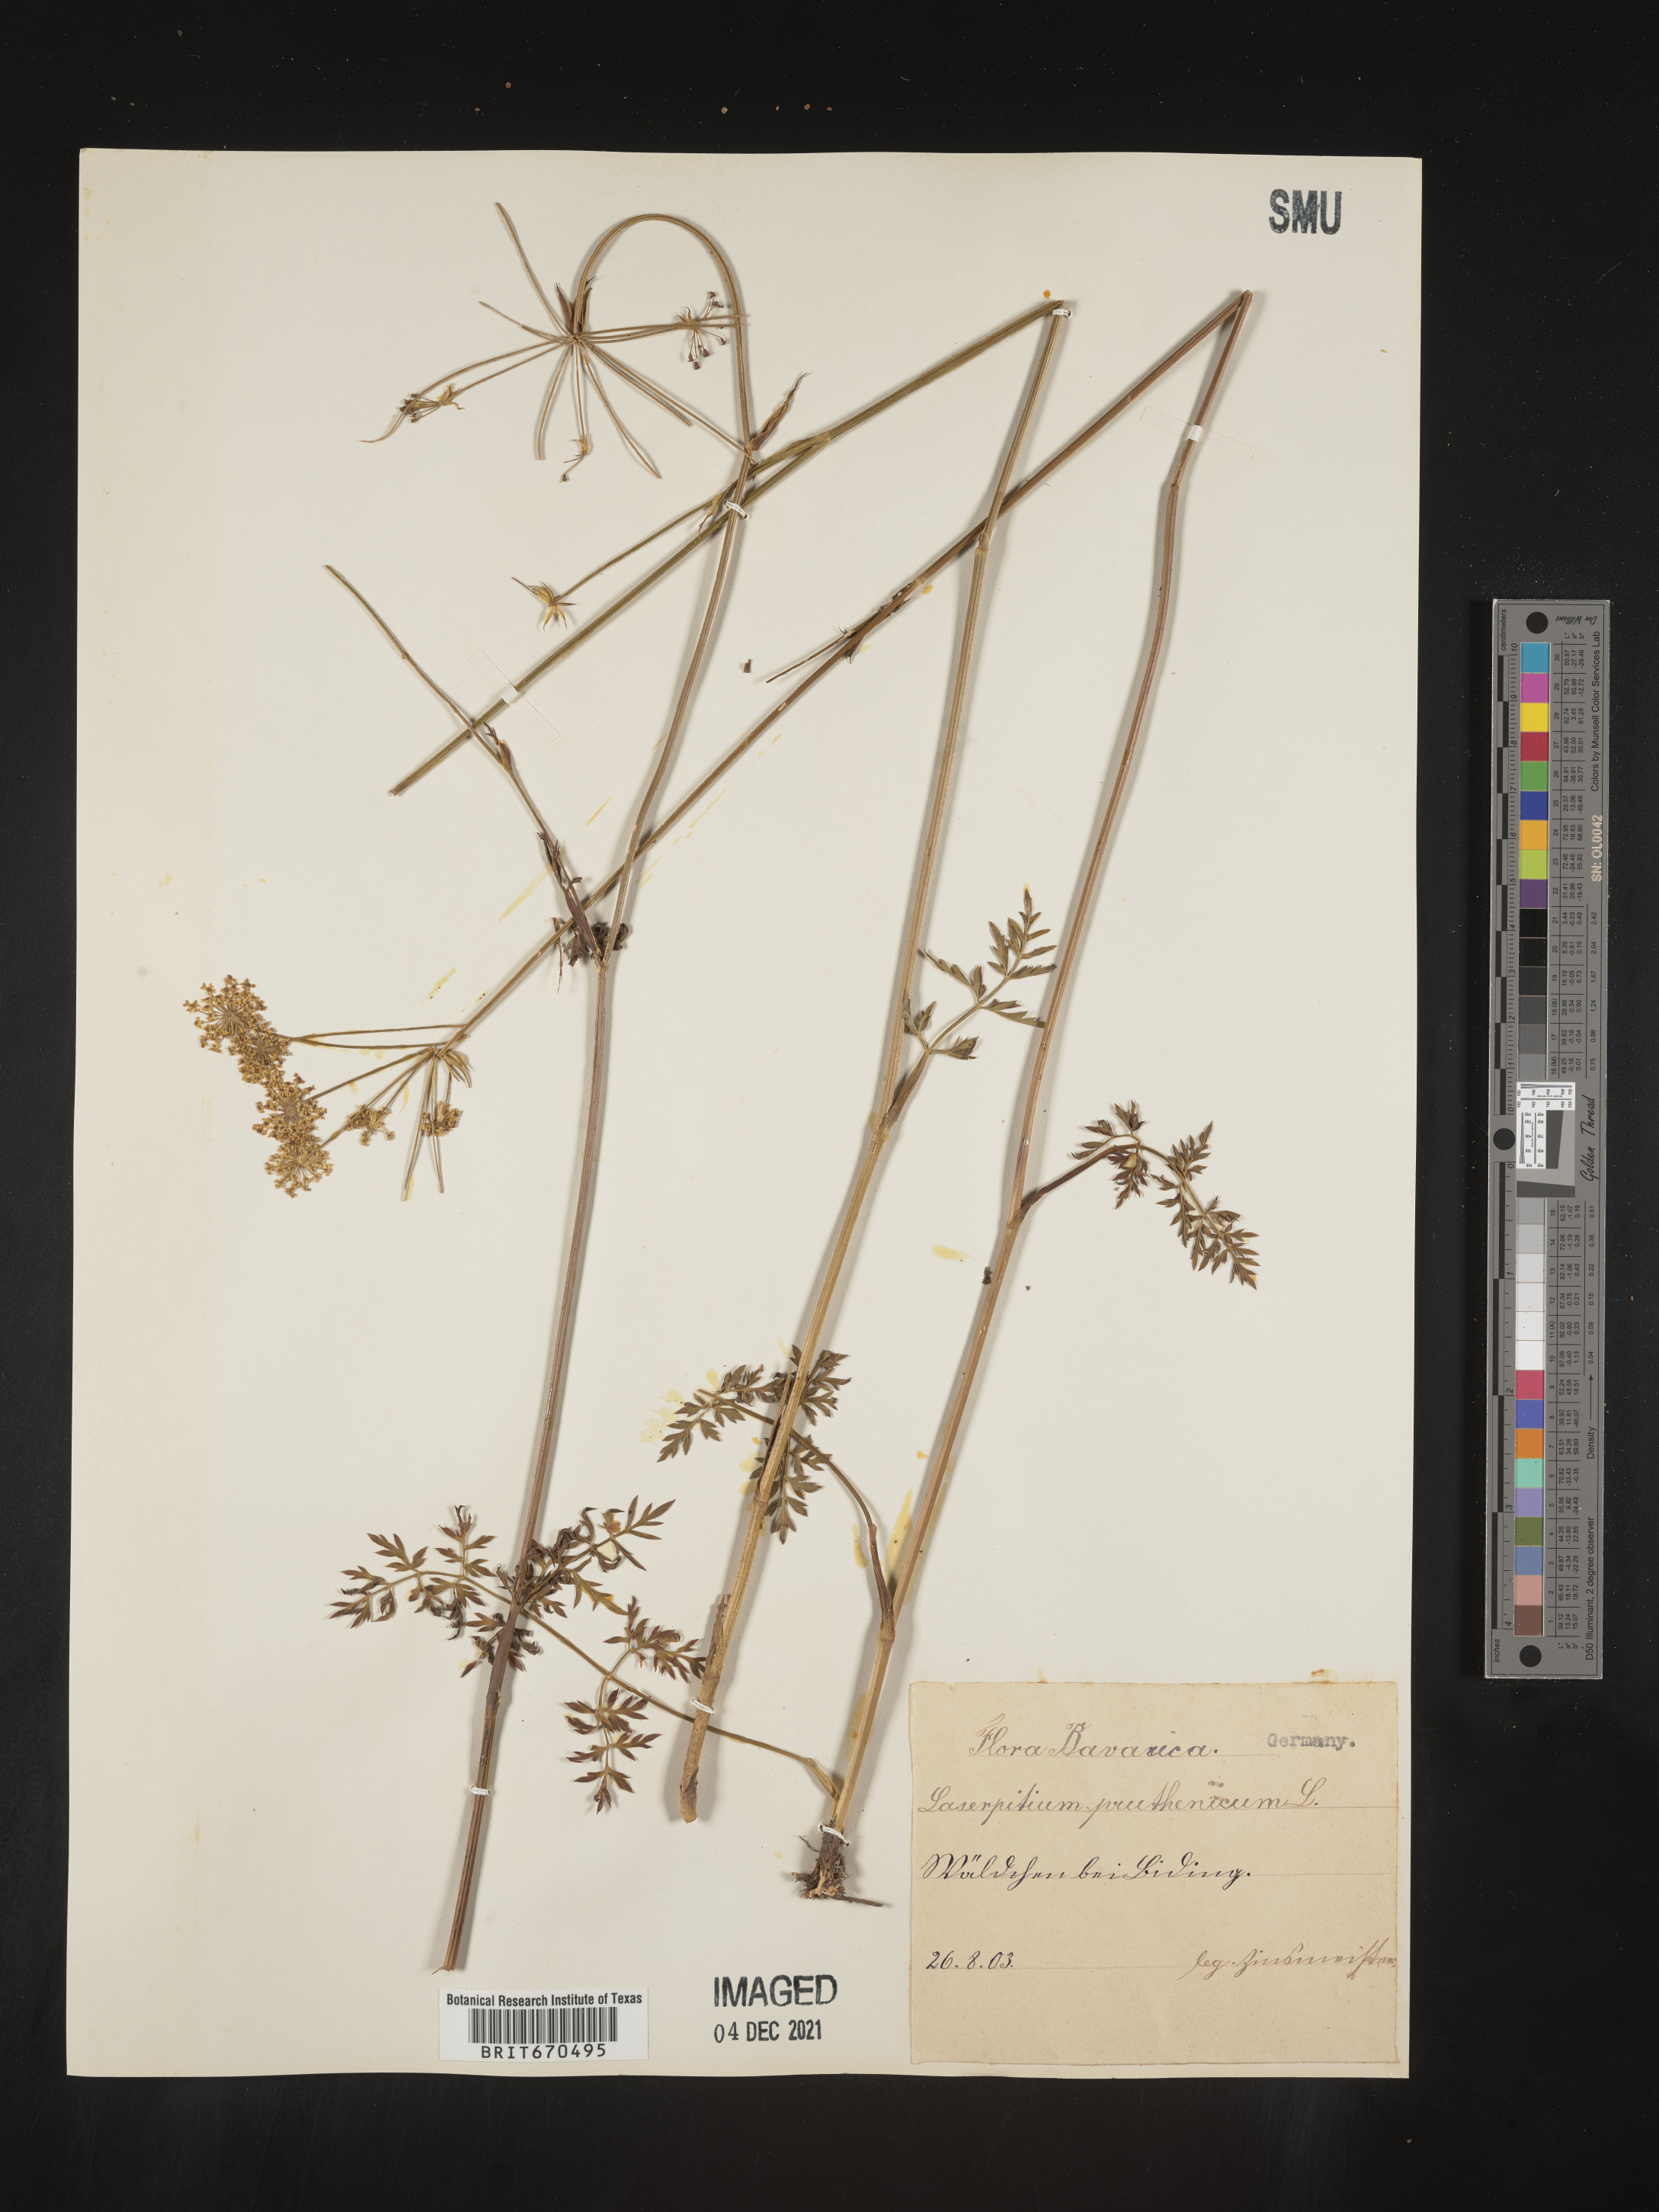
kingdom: Plantae
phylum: Tracheophyta
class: Magnoliopsida
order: Apiales
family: Apiaceae
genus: Laserpitium
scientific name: Laserpitium
